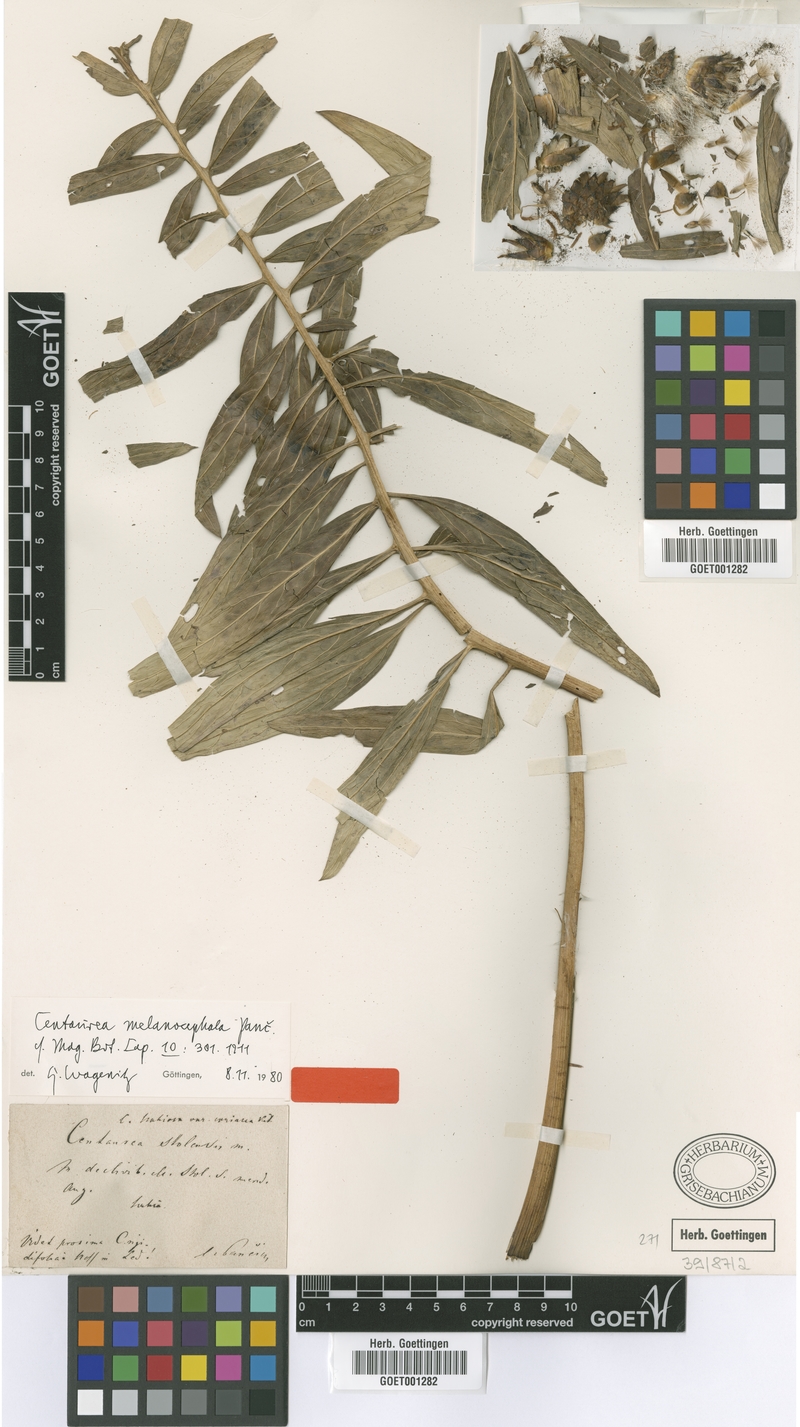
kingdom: Plantae
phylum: Tracheophyta
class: Magnoliopsida
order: Asterales
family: Asteraceae
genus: Centaurea
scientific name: Centaurea melanocephala
